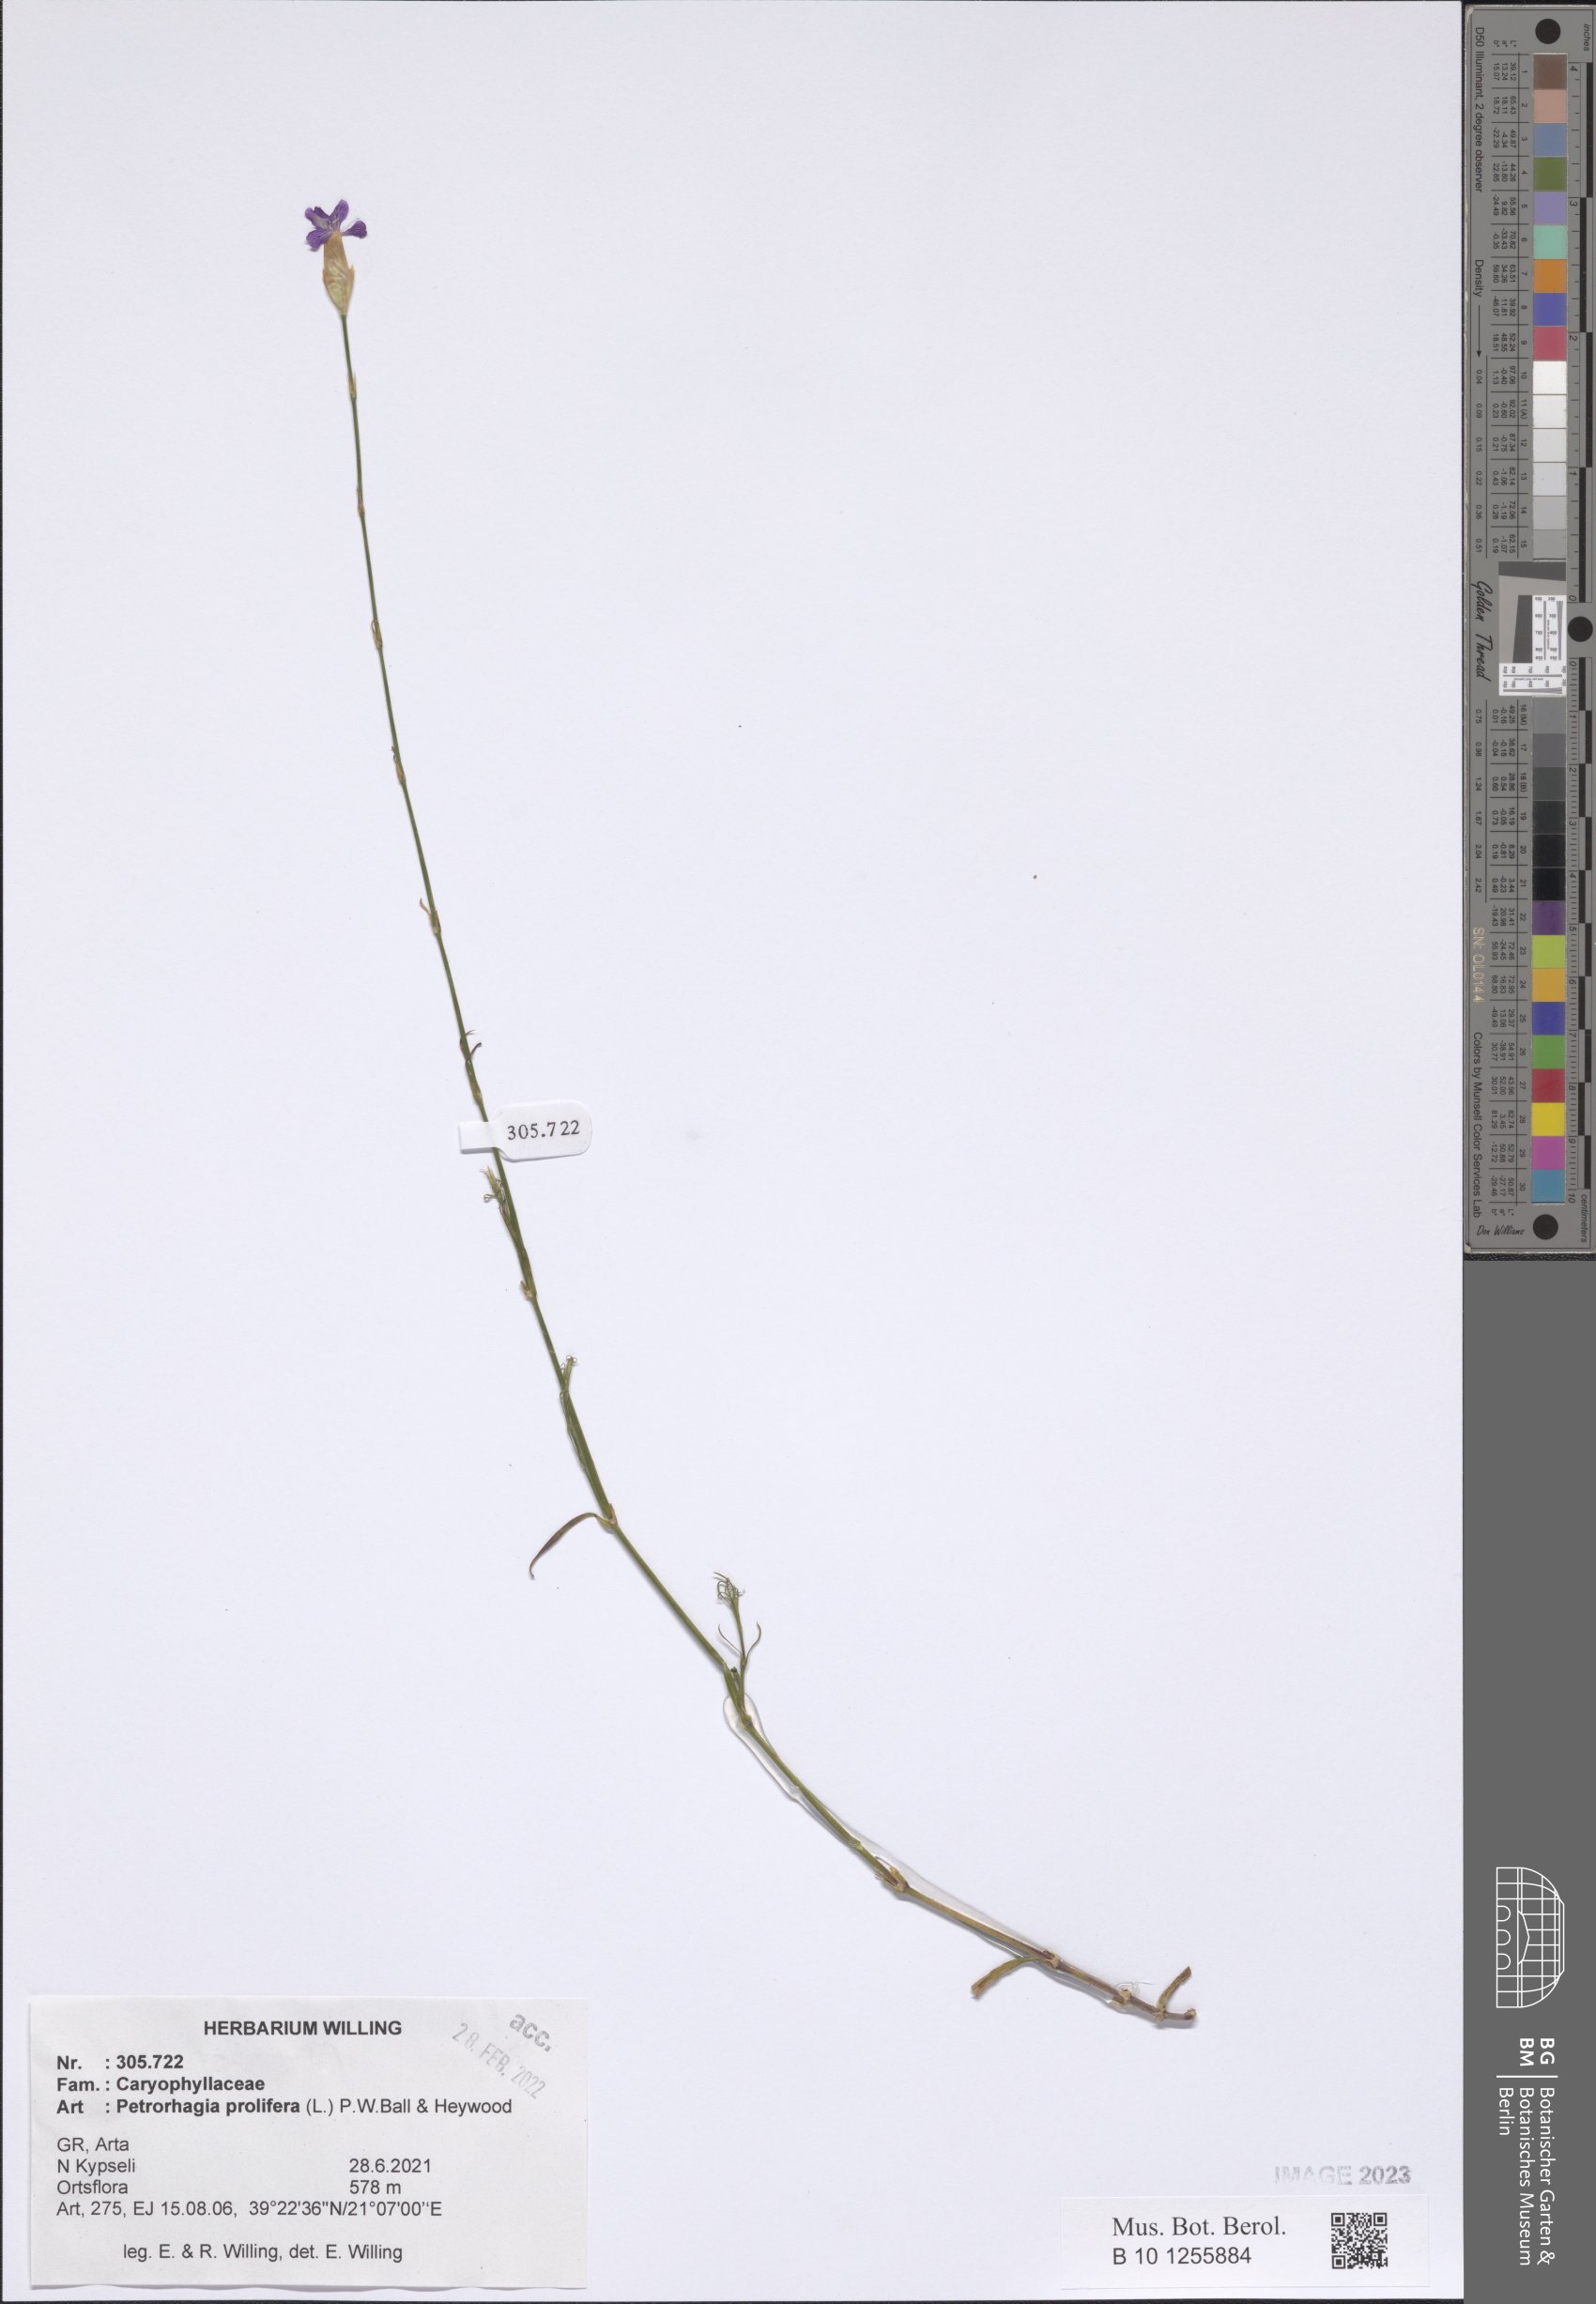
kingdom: Plantae
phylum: Tracheophyta
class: Magnoliopsida
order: Caryophyllales
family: Caryophyllaceae
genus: Petrorhagia
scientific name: Petrorhagia prolifera
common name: Proliferous pink
